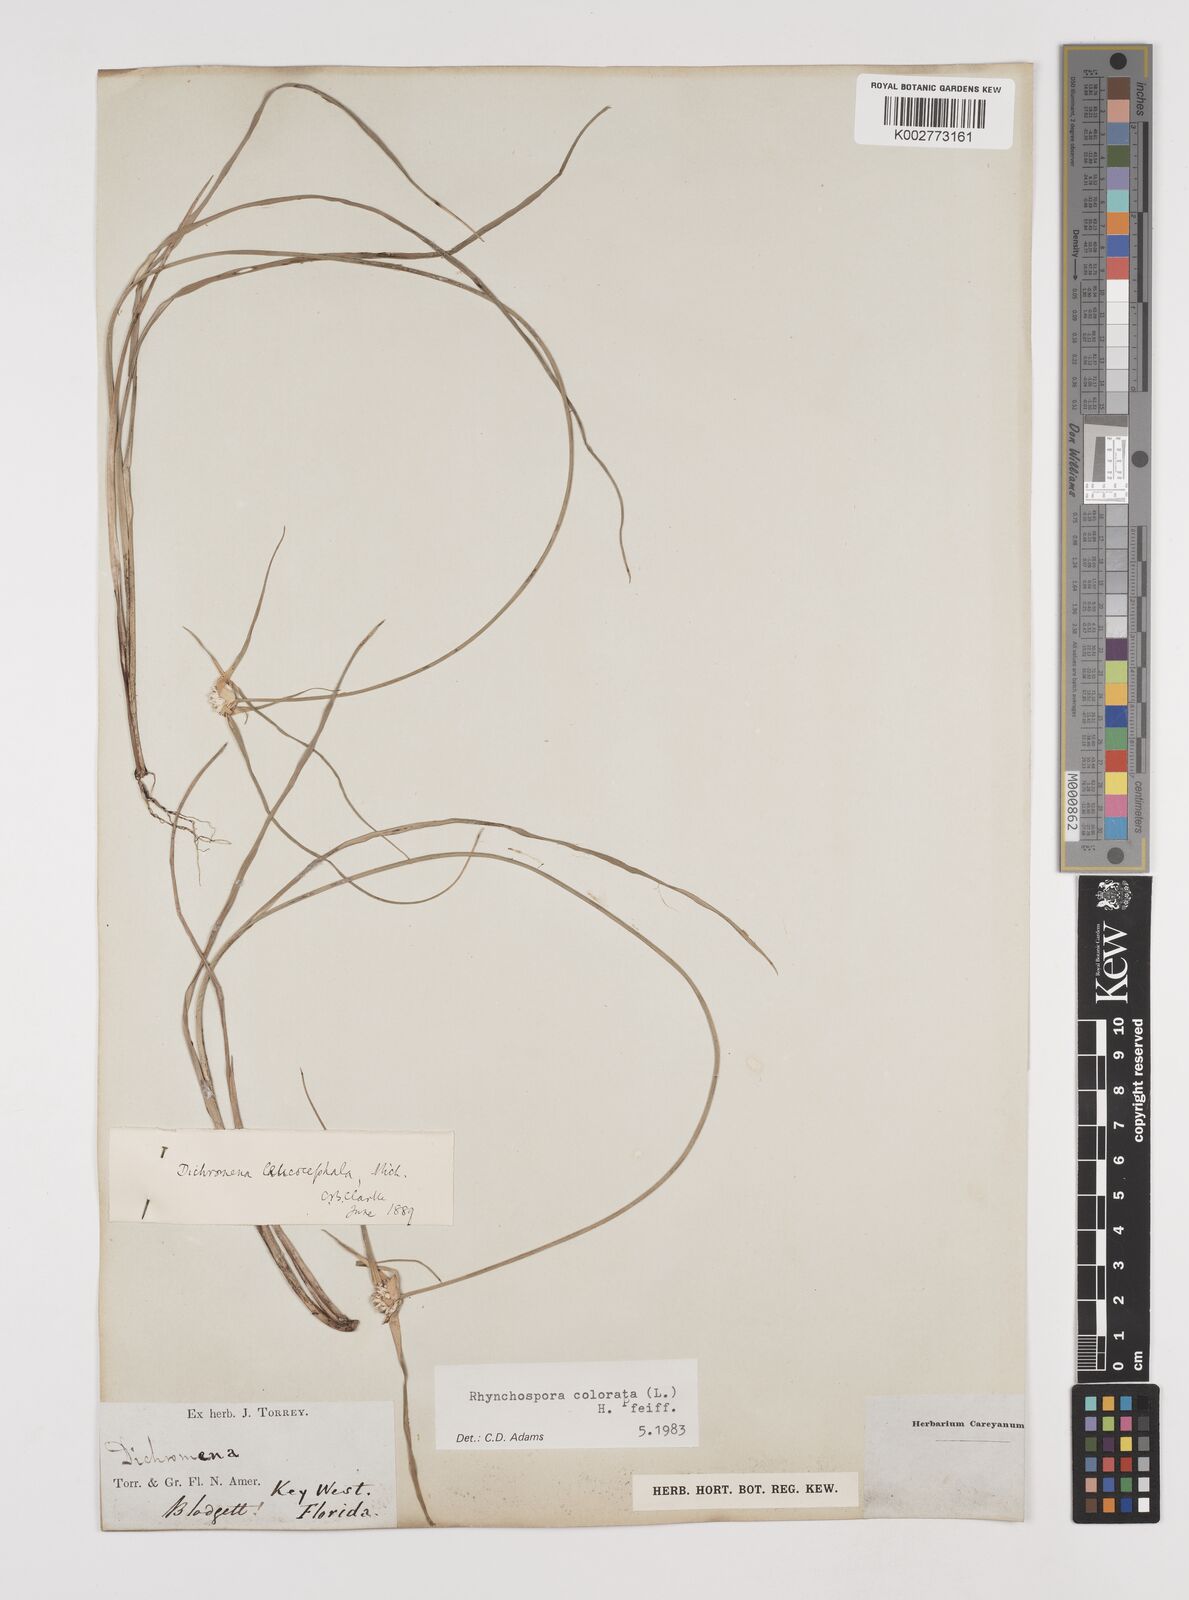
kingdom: Plantae
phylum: Tracheophyta
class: Liliopsida
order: Poales
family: Cyperaceae
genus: Rhynchospora
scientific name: Rhynchospora colorata
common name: Star sedge
